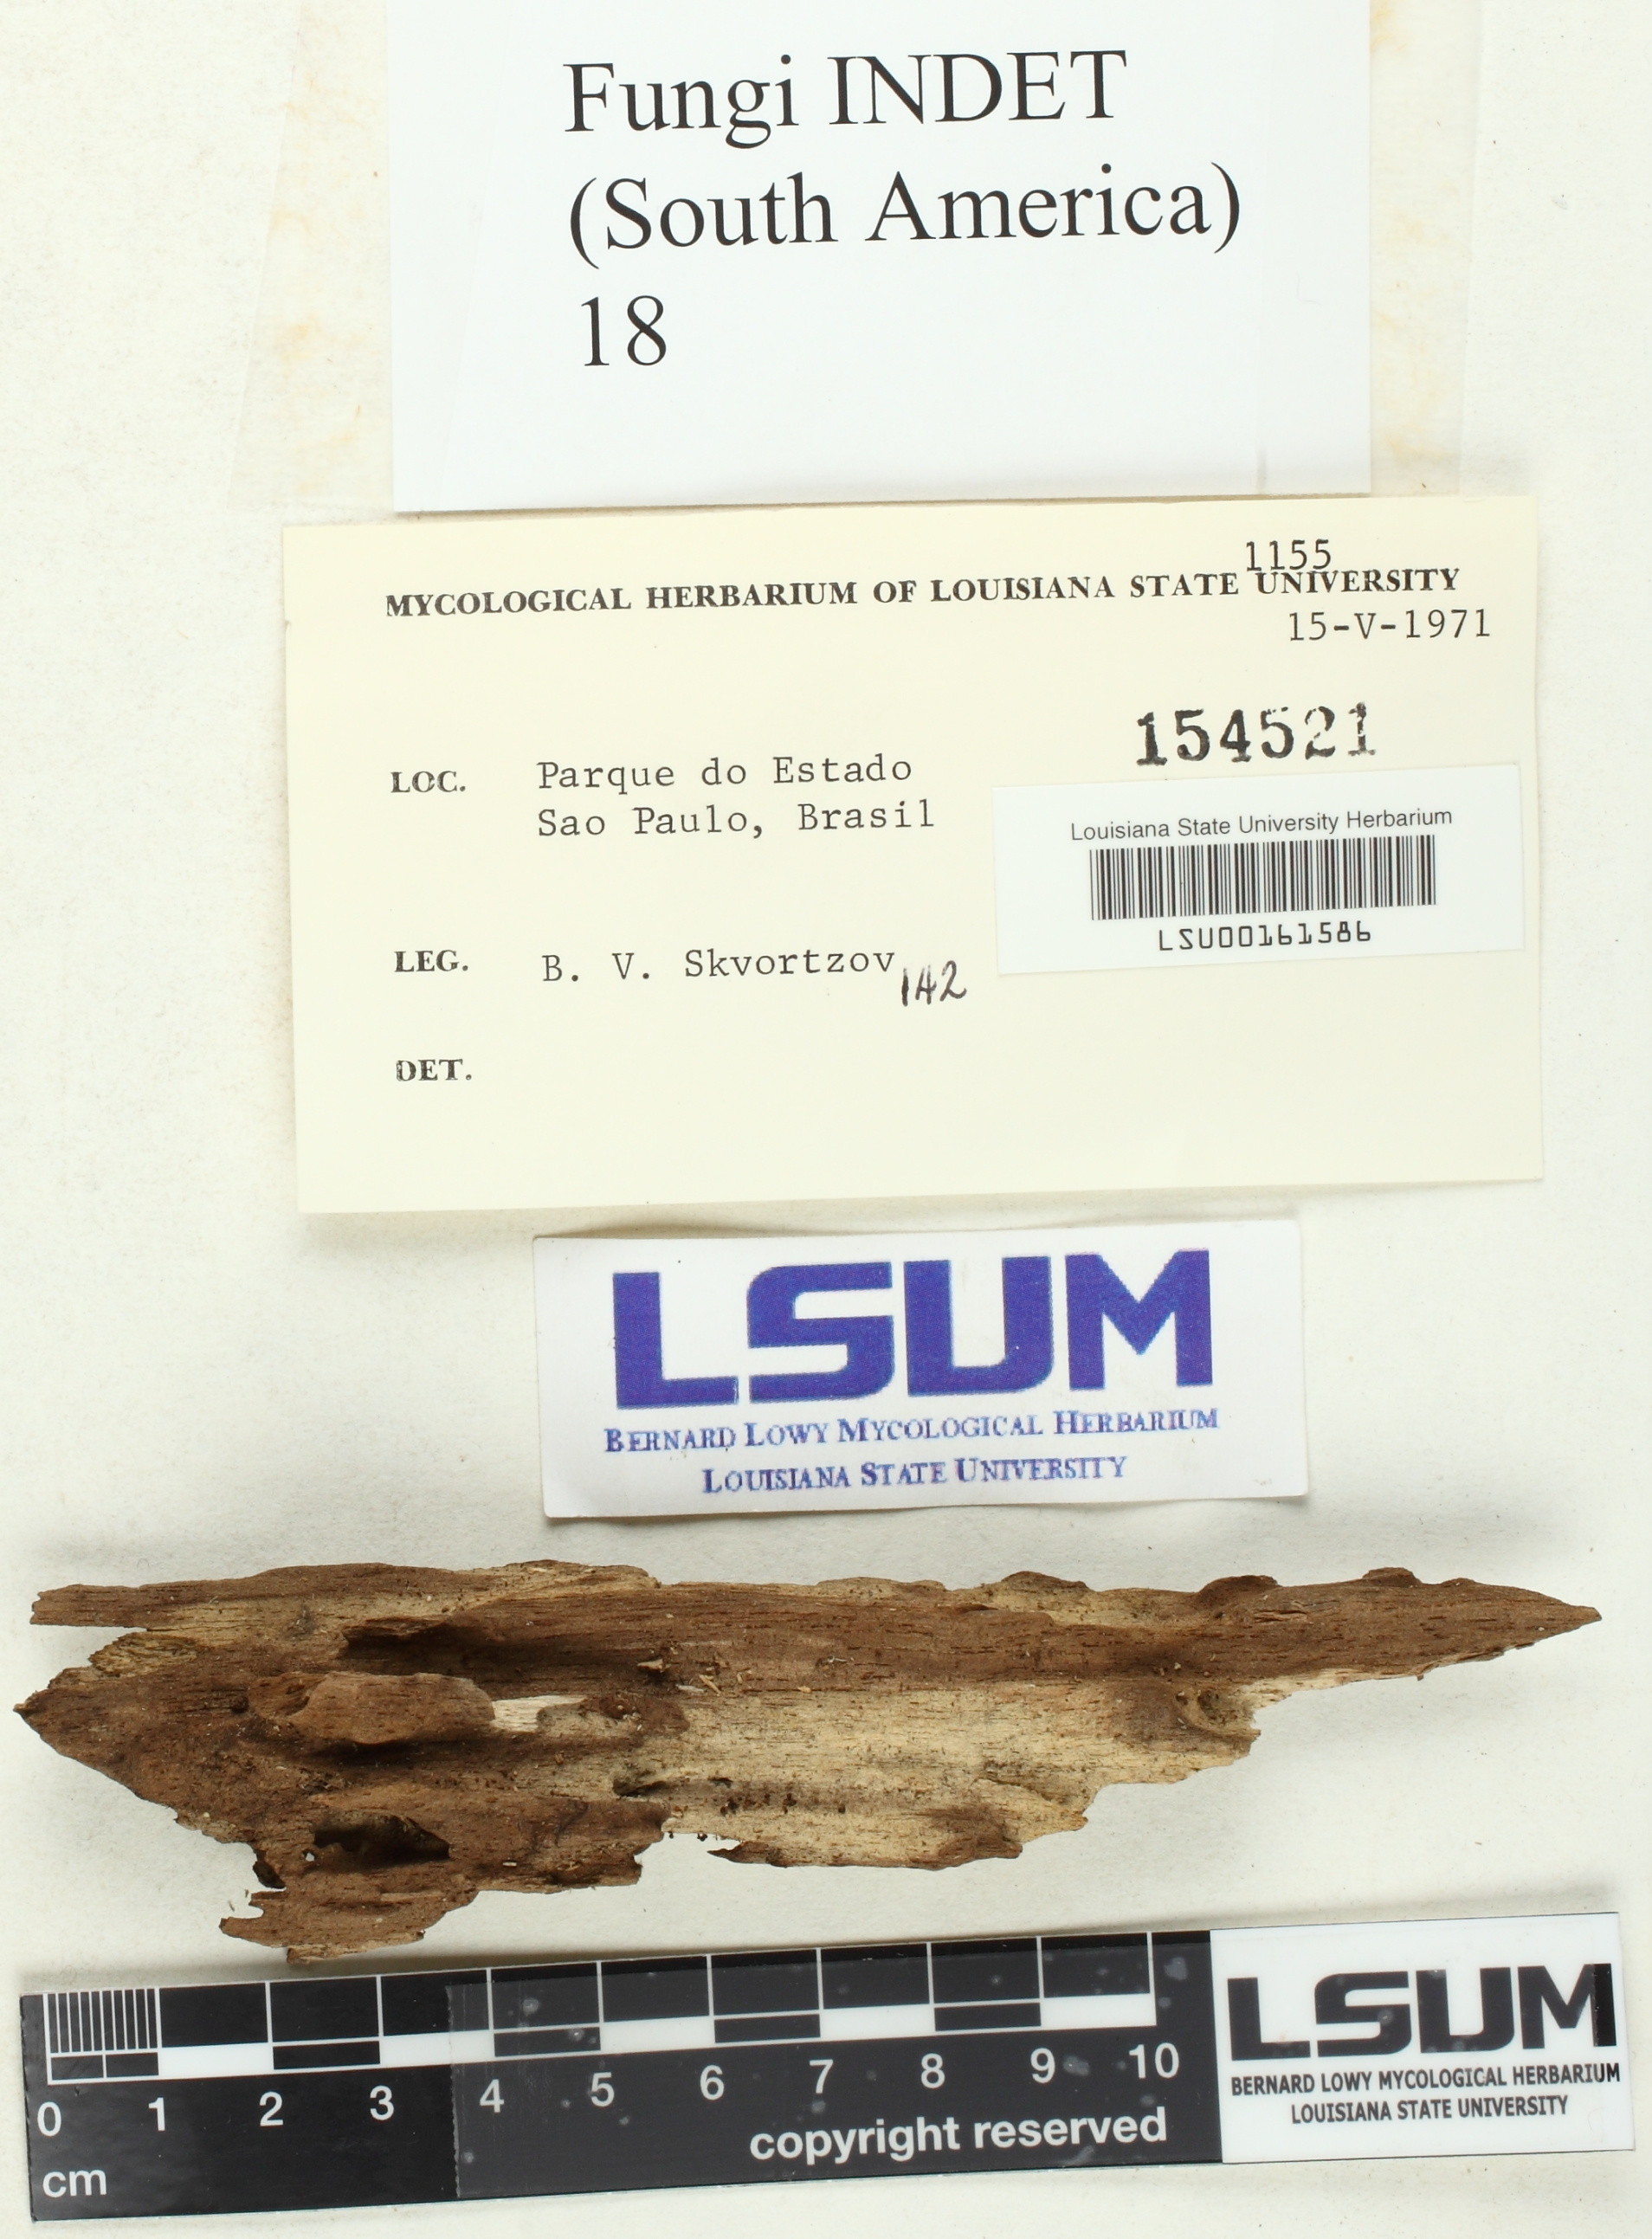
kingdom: Fungi
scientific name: Fungi
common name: Fungi
